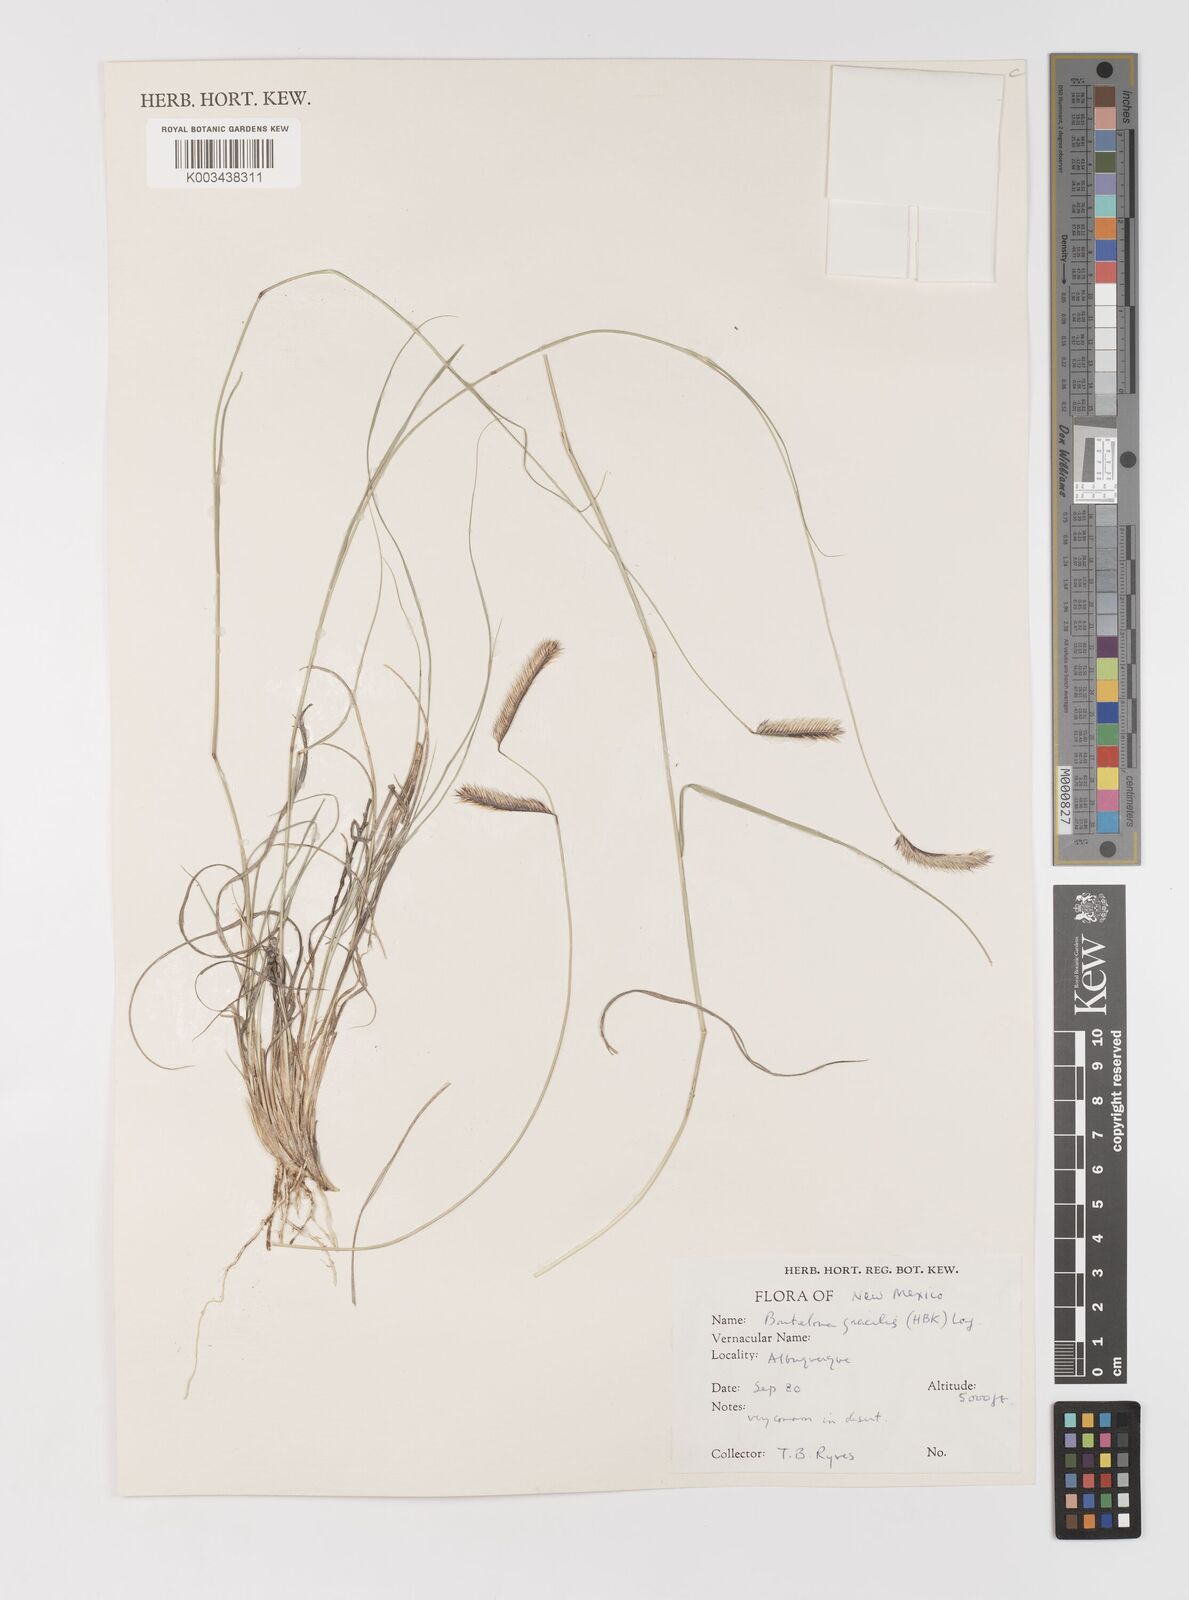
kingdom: Plantae
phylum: Tracheophyta
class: Liliopsida
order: Poales
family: Poaceae
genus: Bouteloua
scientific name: Bouteloua
